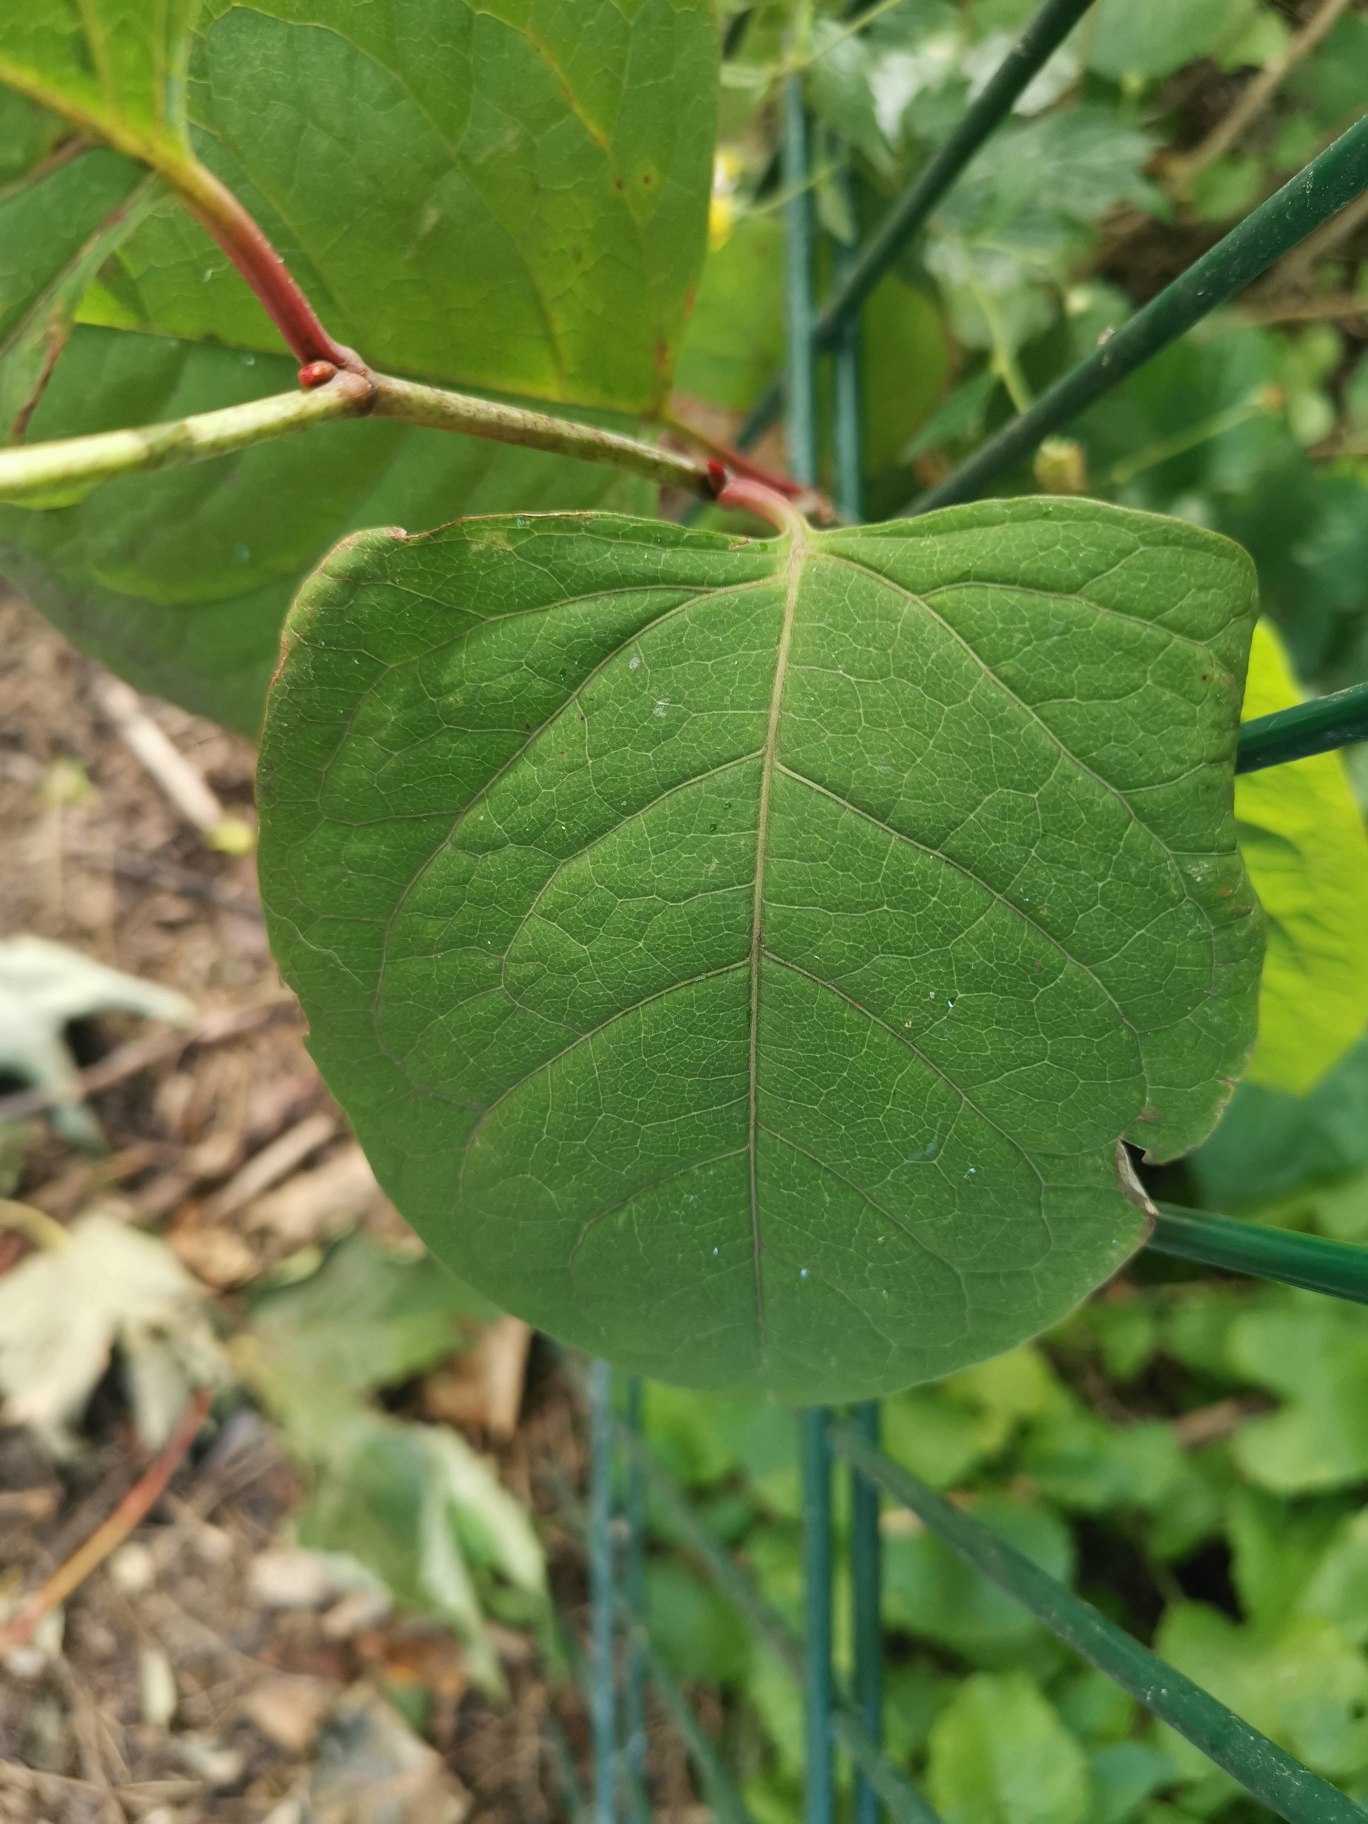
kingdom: Plantae
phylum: Tracheophyta
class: Magnoliopsida
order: Caryophyllales
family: Polygonaceae
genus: Reynoutria
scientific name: Reynoutria japonica
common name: Japan-pileurt
